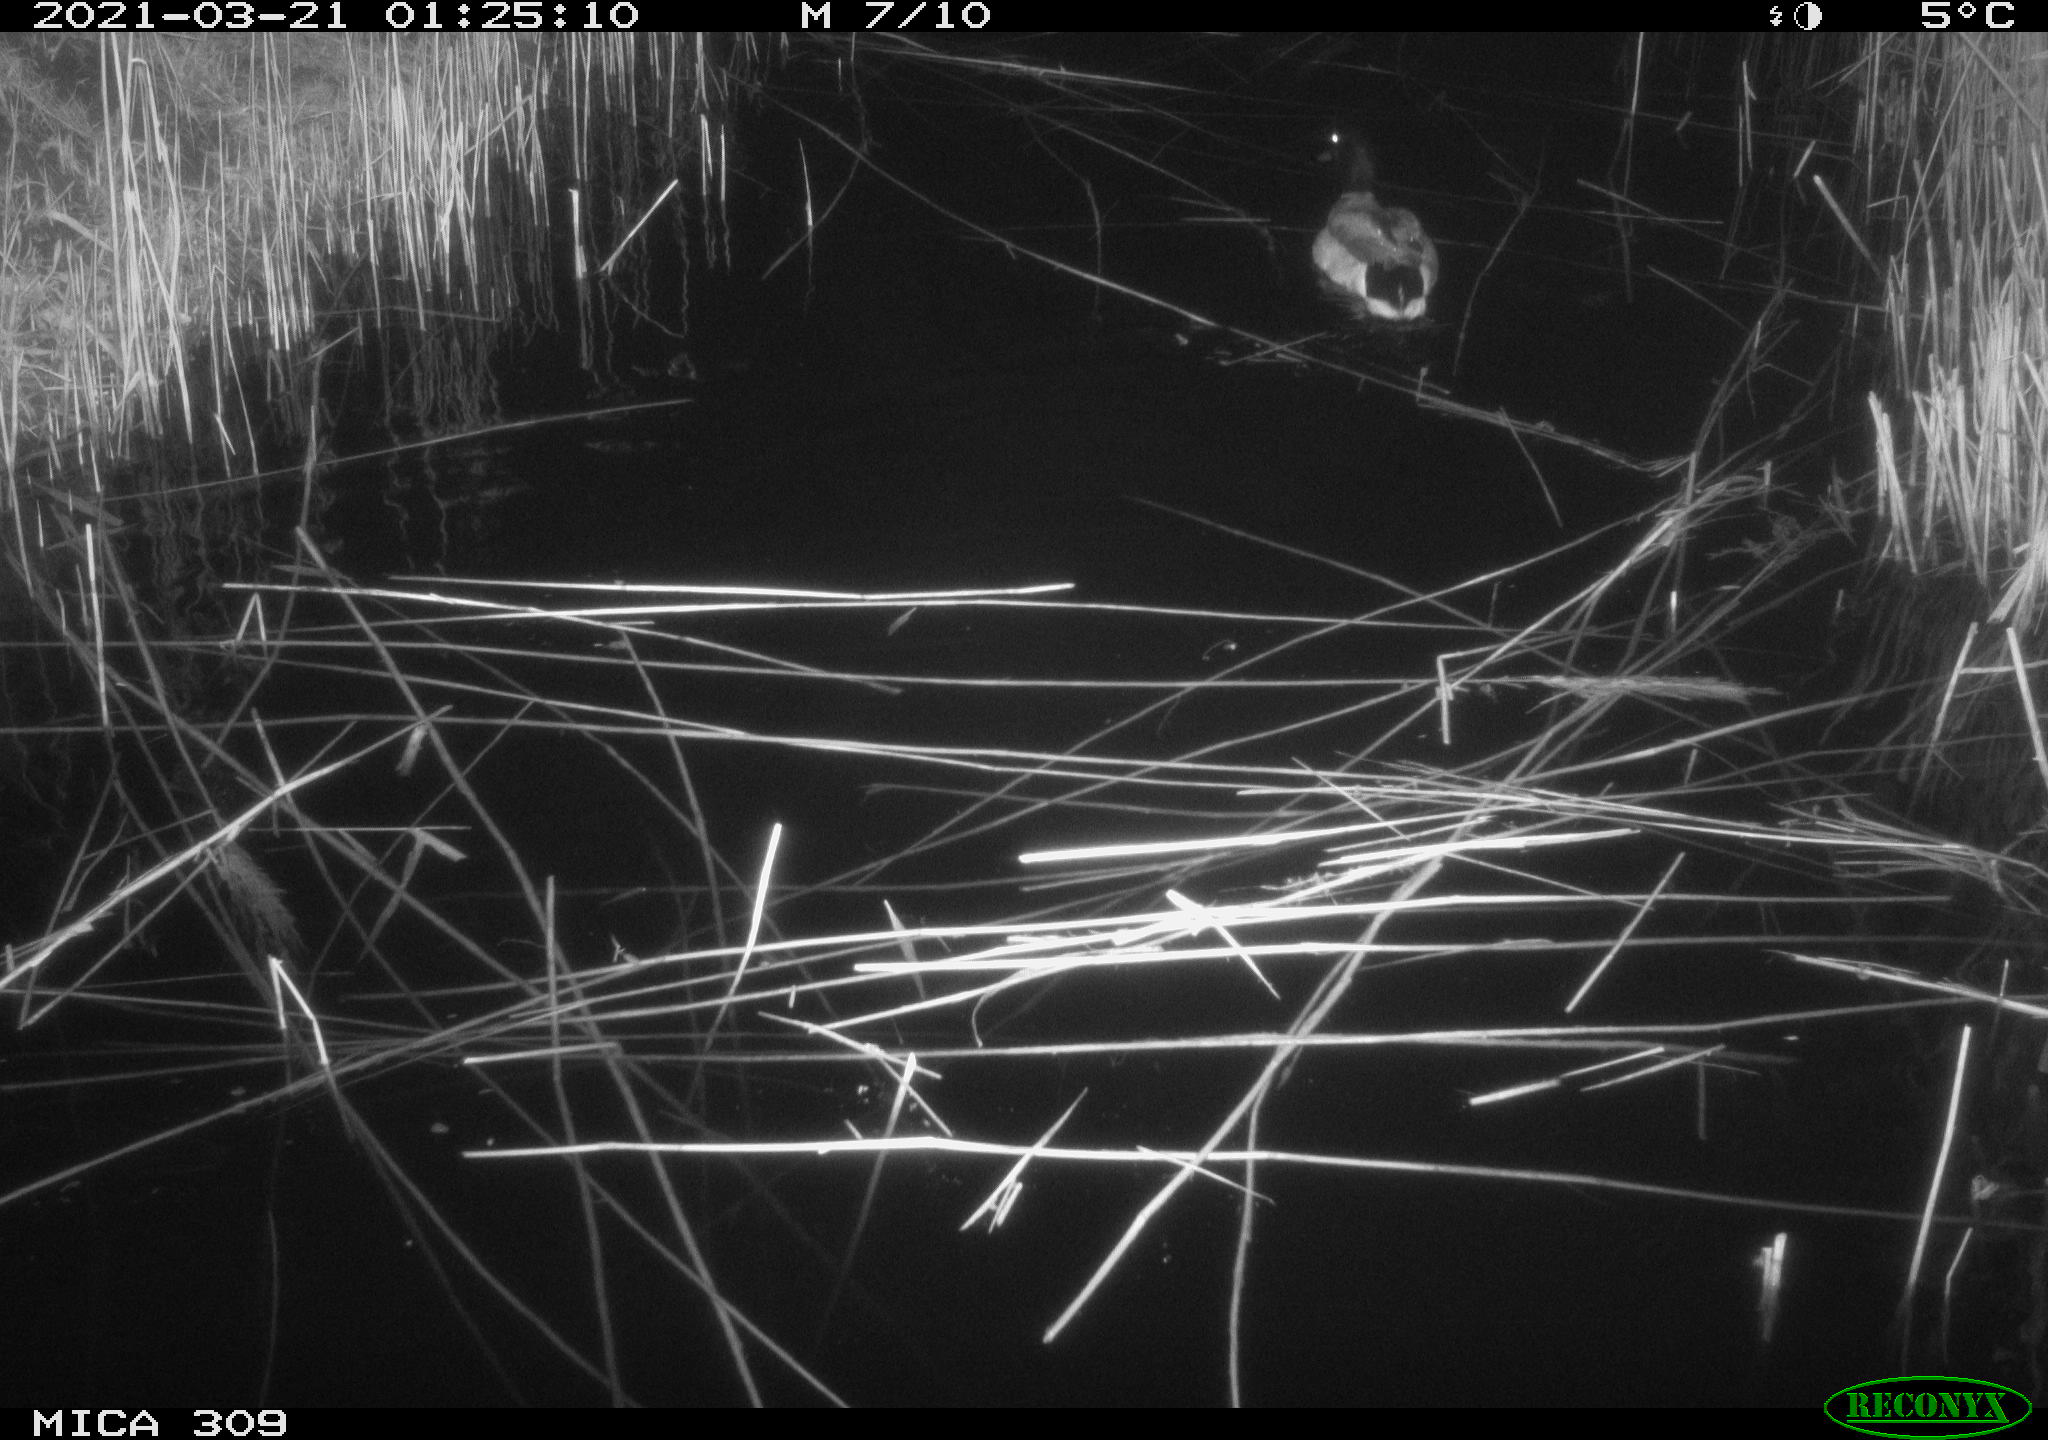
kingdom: Animalia
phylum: Chordata
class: Aves
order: Anseriformes
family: Anatidae
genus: Anas
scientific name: Anas platyrhynchos
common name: Mallard
